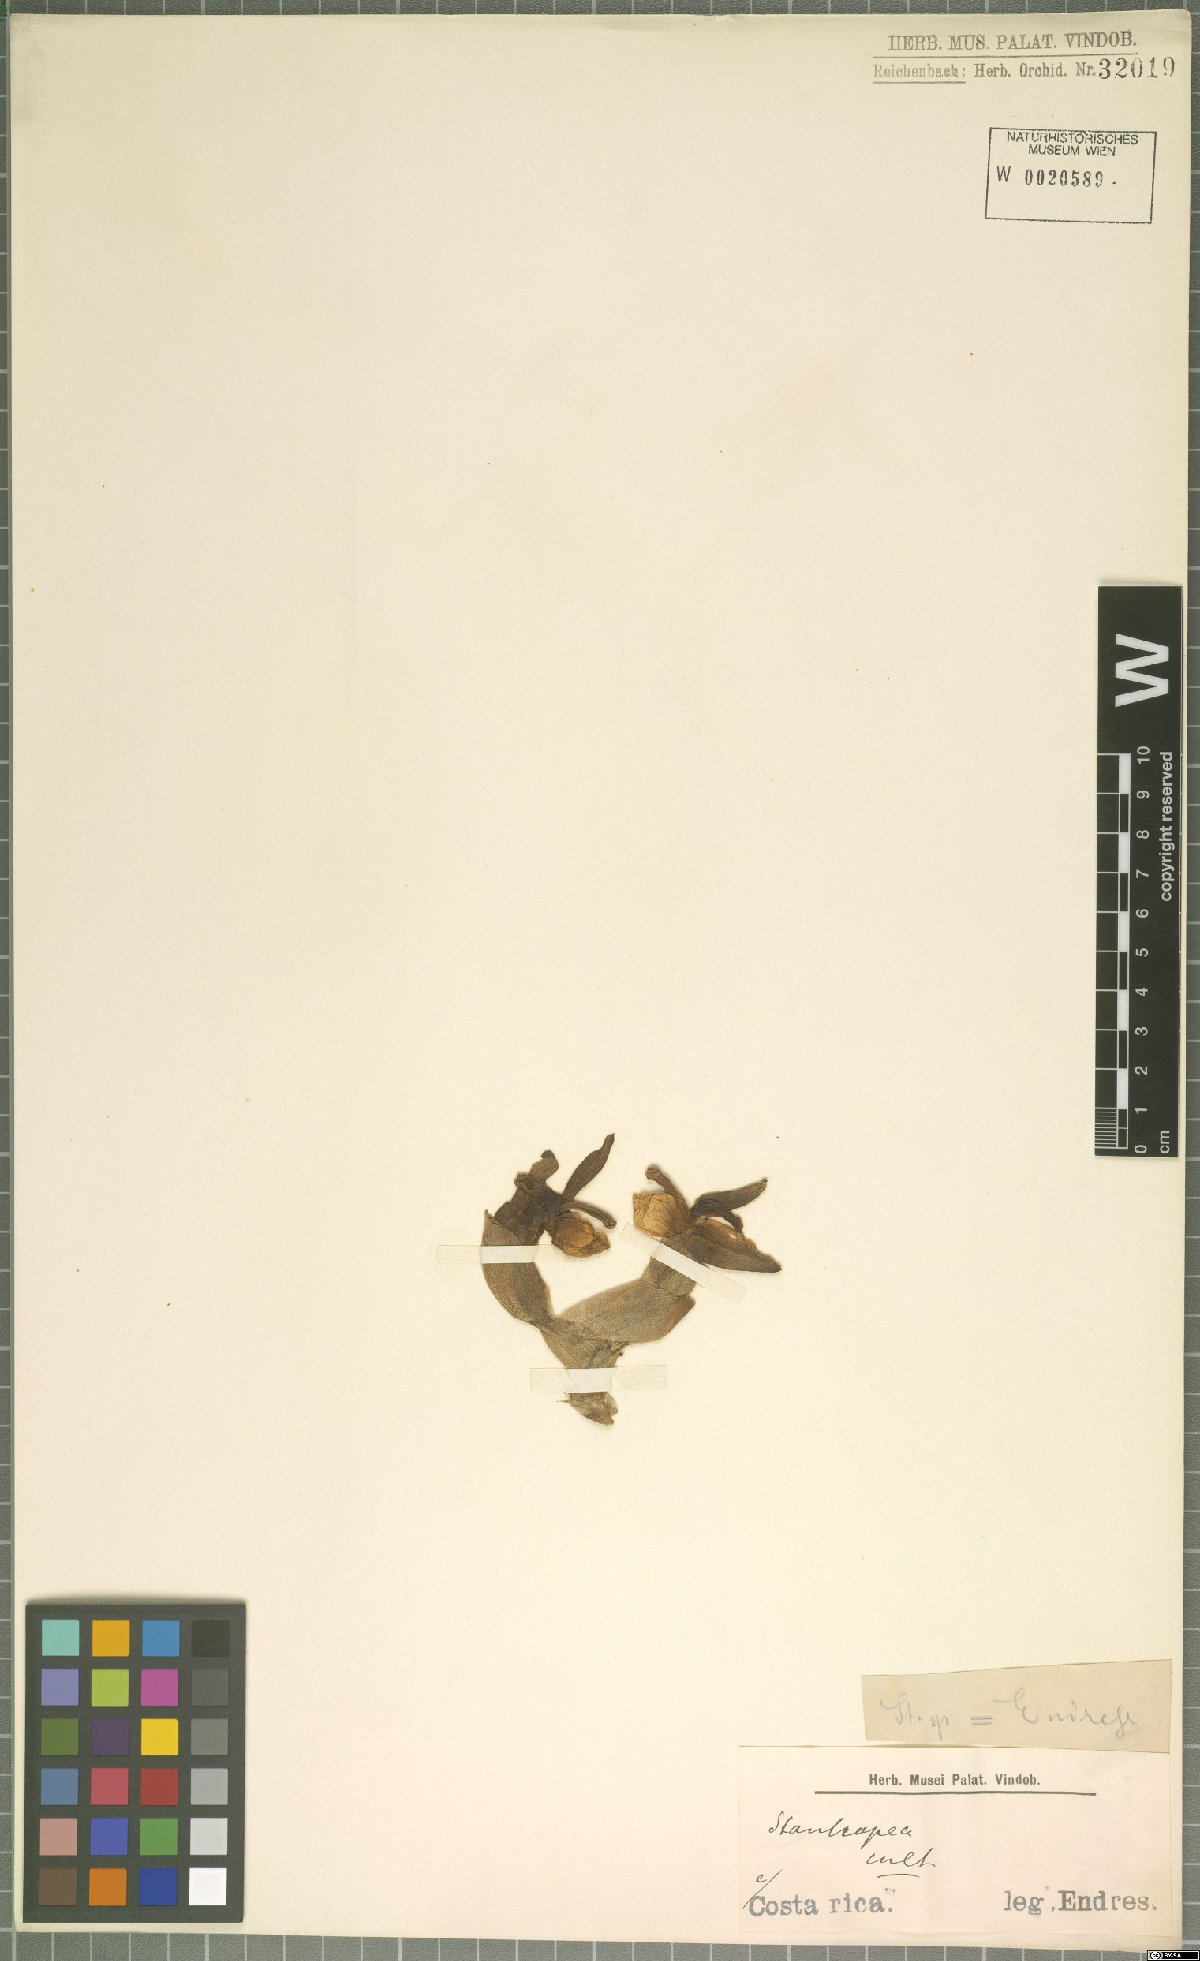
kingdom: Plantae
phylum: Tracheophyta
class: Liliopsida
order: Asparagales
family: Orchidaceae
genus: Stanhopea
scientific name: Stanhopea pulla
